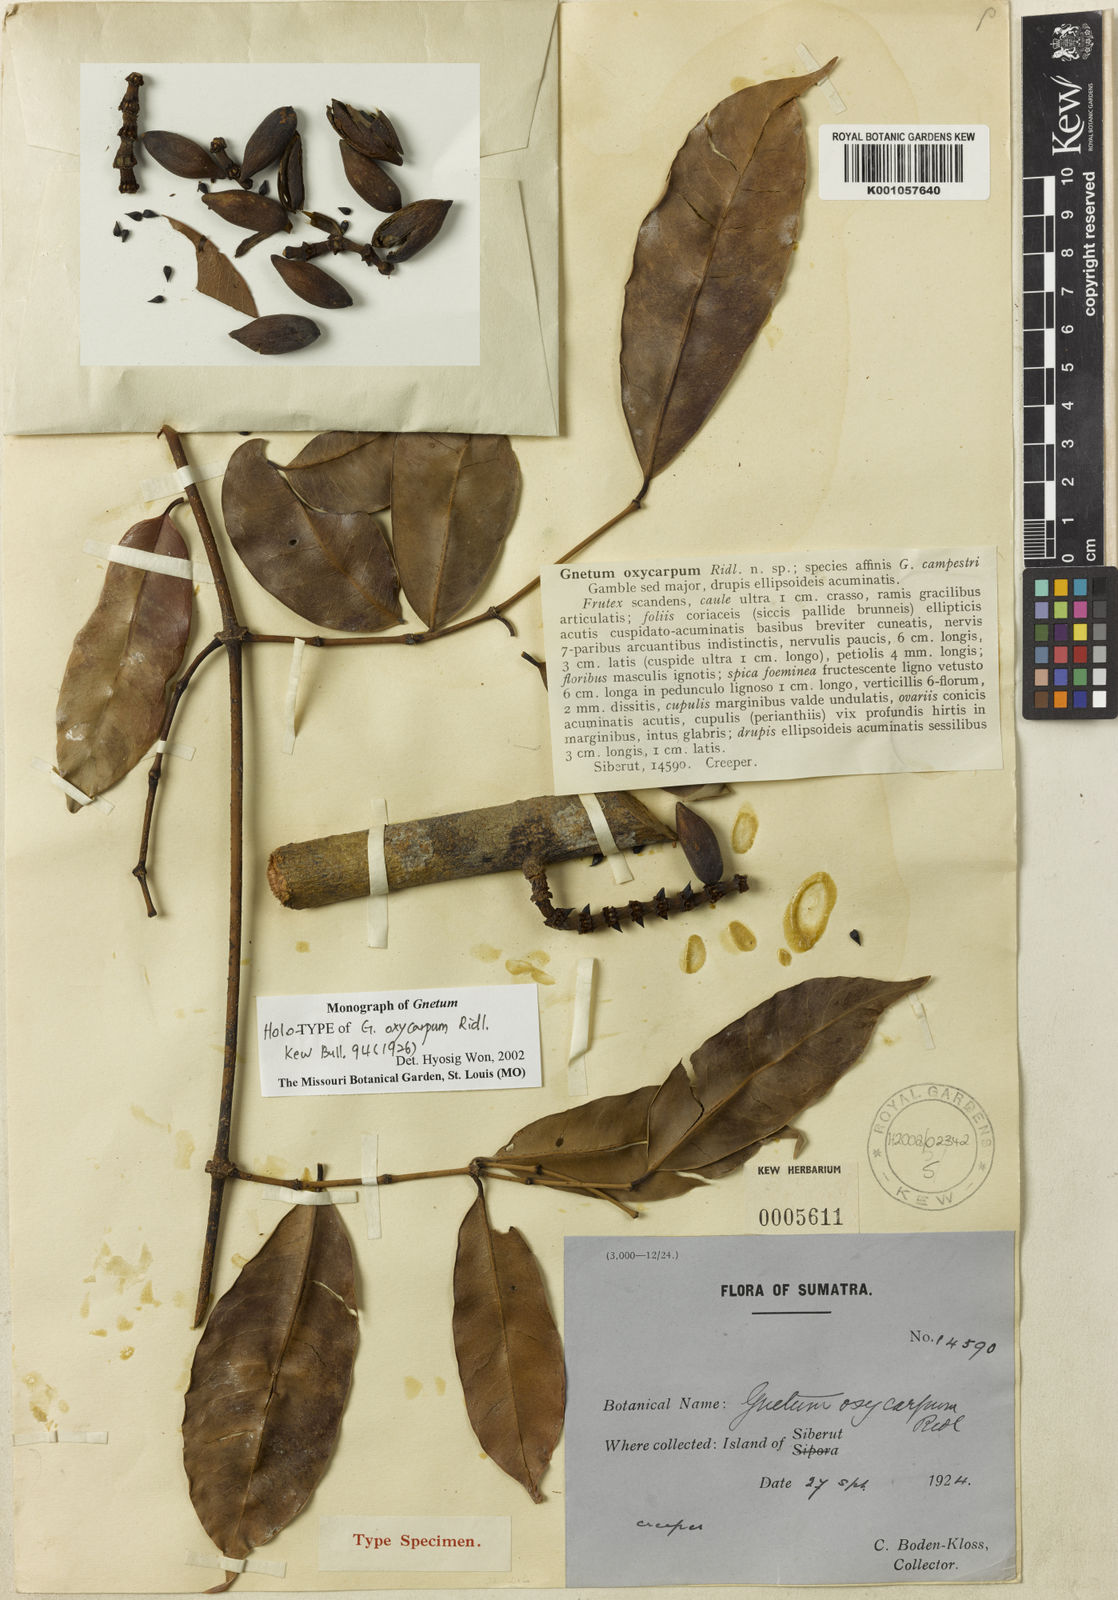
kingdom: Plantae
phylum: Tracheophyta
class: Gnetopsida
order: Gnetales
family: Gnetaceae
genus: Gnetum
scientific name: Gnetum oxycarpum
